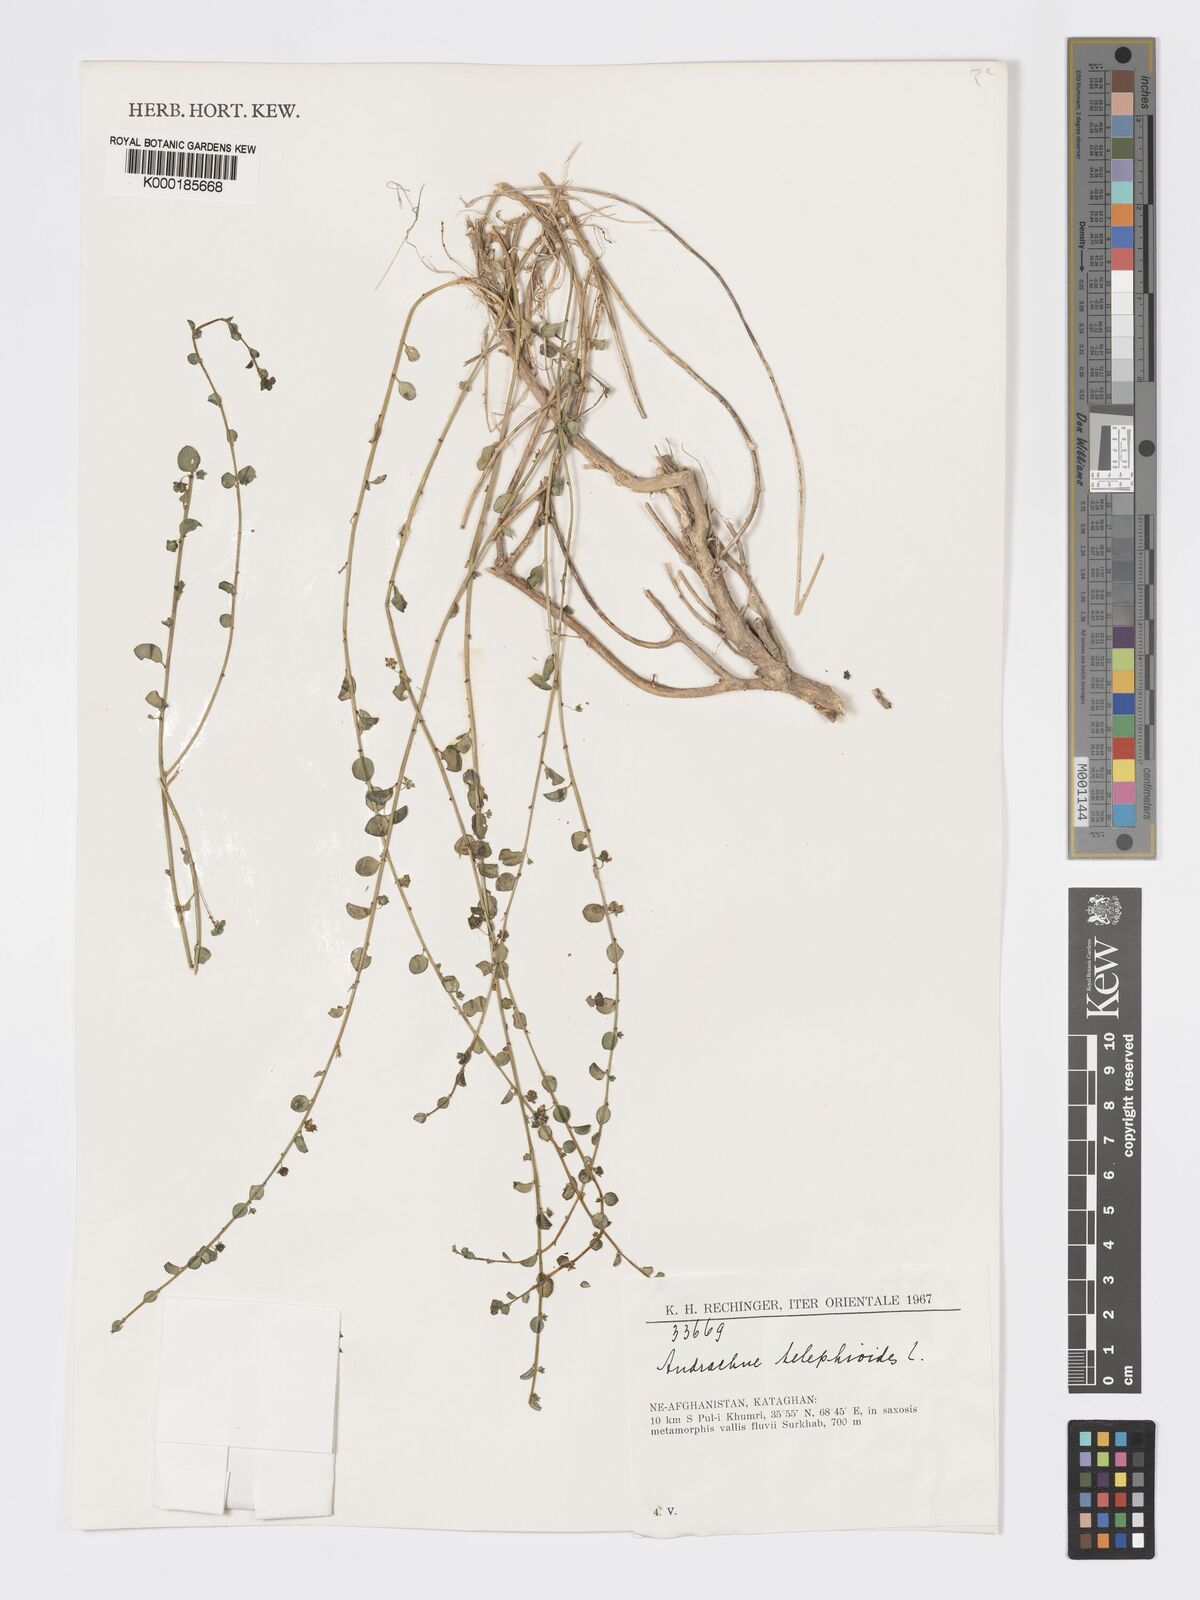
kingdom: Plantae
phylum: Tracheophyta
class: Magnoliopsida
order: Malpighiales
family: Phyllanthaceae
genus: Andrachne
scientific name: Andrachne telephioides
